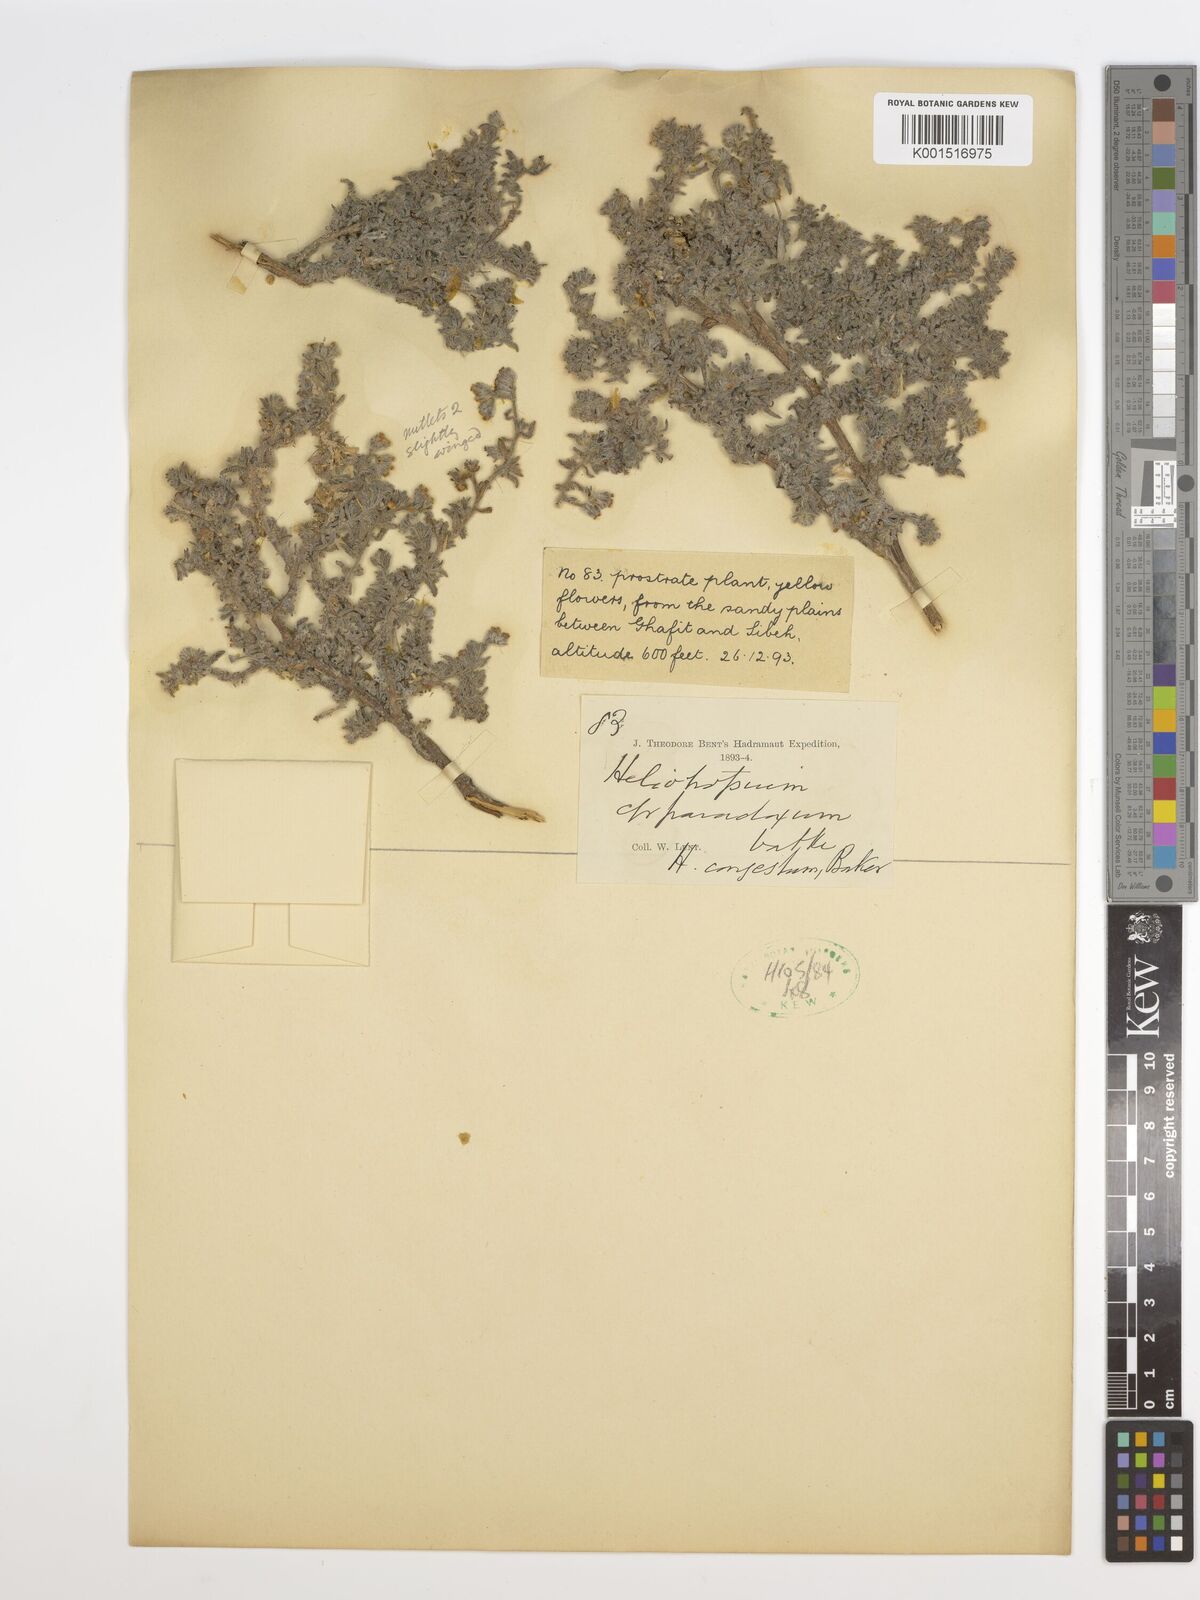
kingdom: Plantae
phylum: Tracheophyta
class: Magnoliopsida
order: Boraginales
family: Heliotropiaceae
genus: Heliotropium
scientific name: Heliotropium congestum
